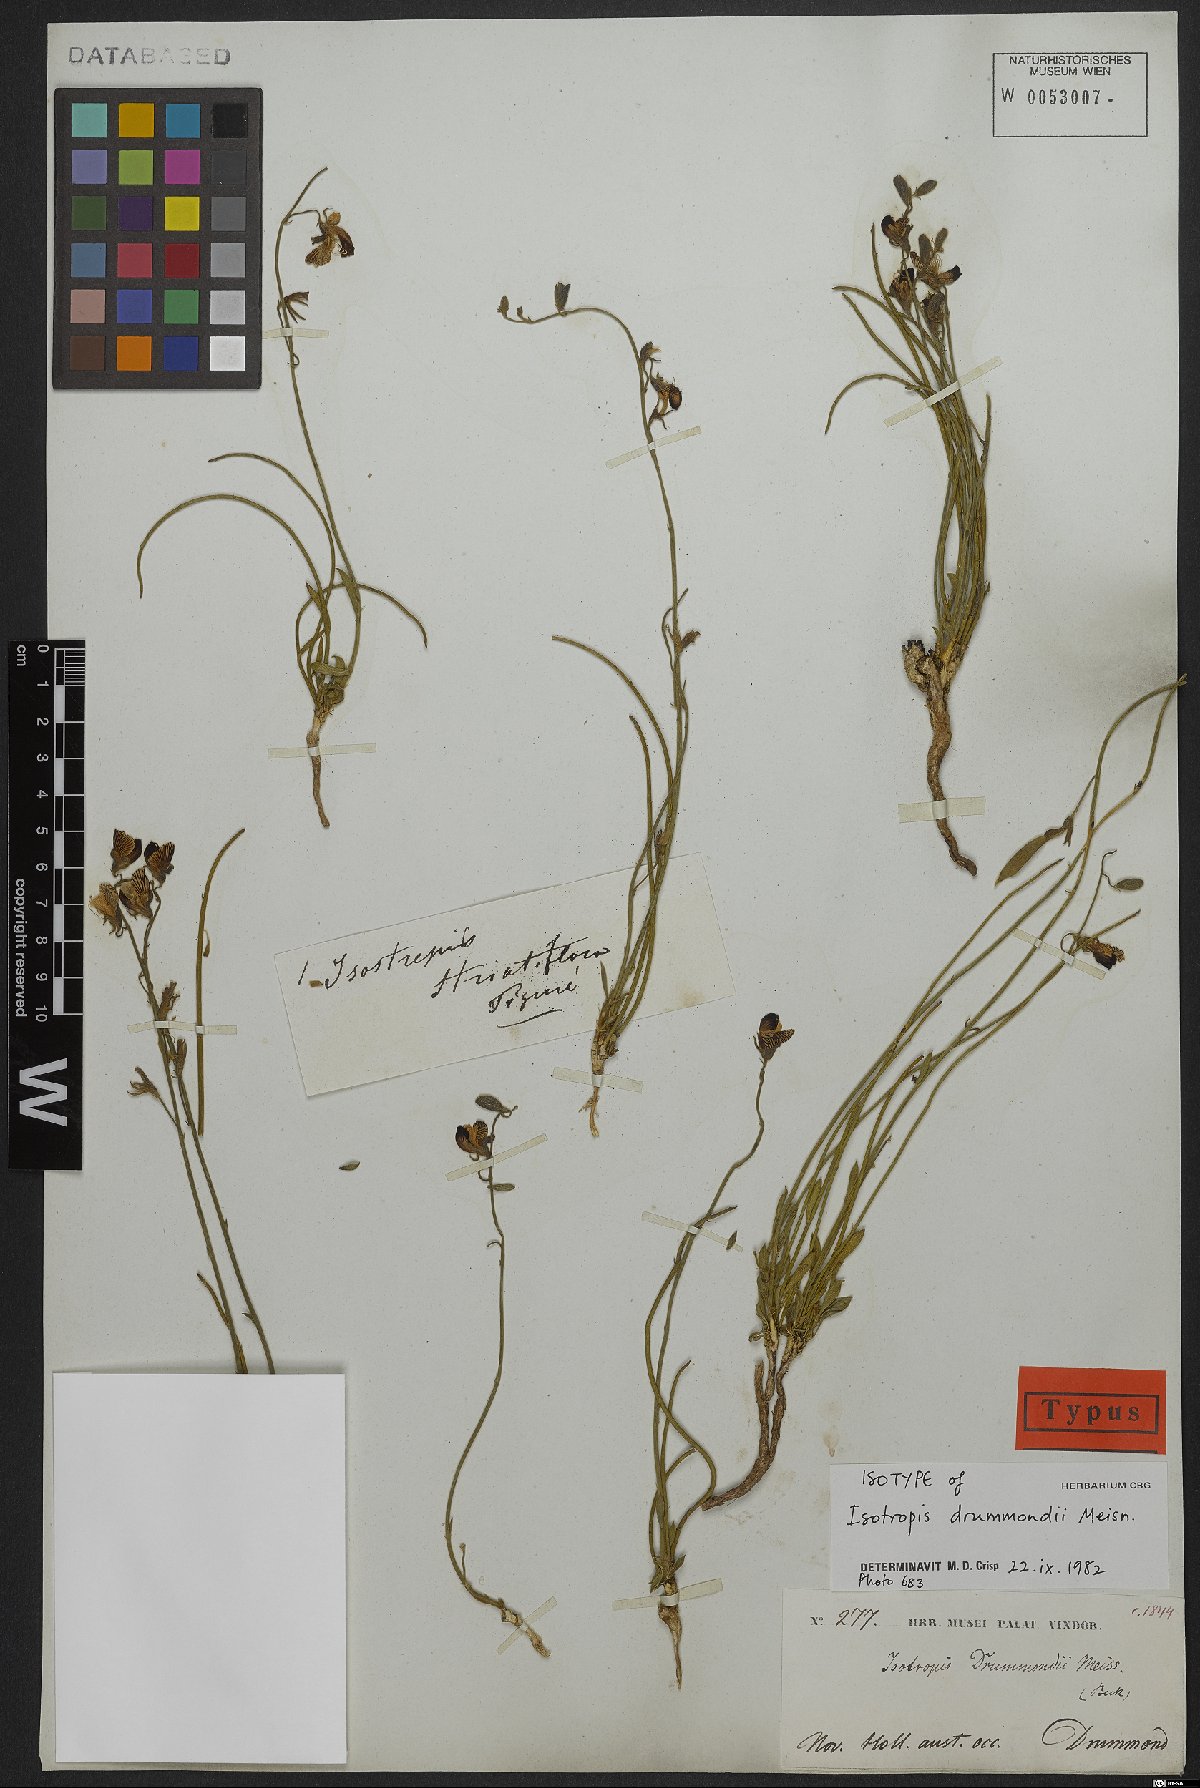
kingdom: Plantae
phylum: Tracheophyta
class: Magnoliopsida
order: Fabales
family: Fabaceae
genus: Isotropis
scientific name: Isotropis drummondii
